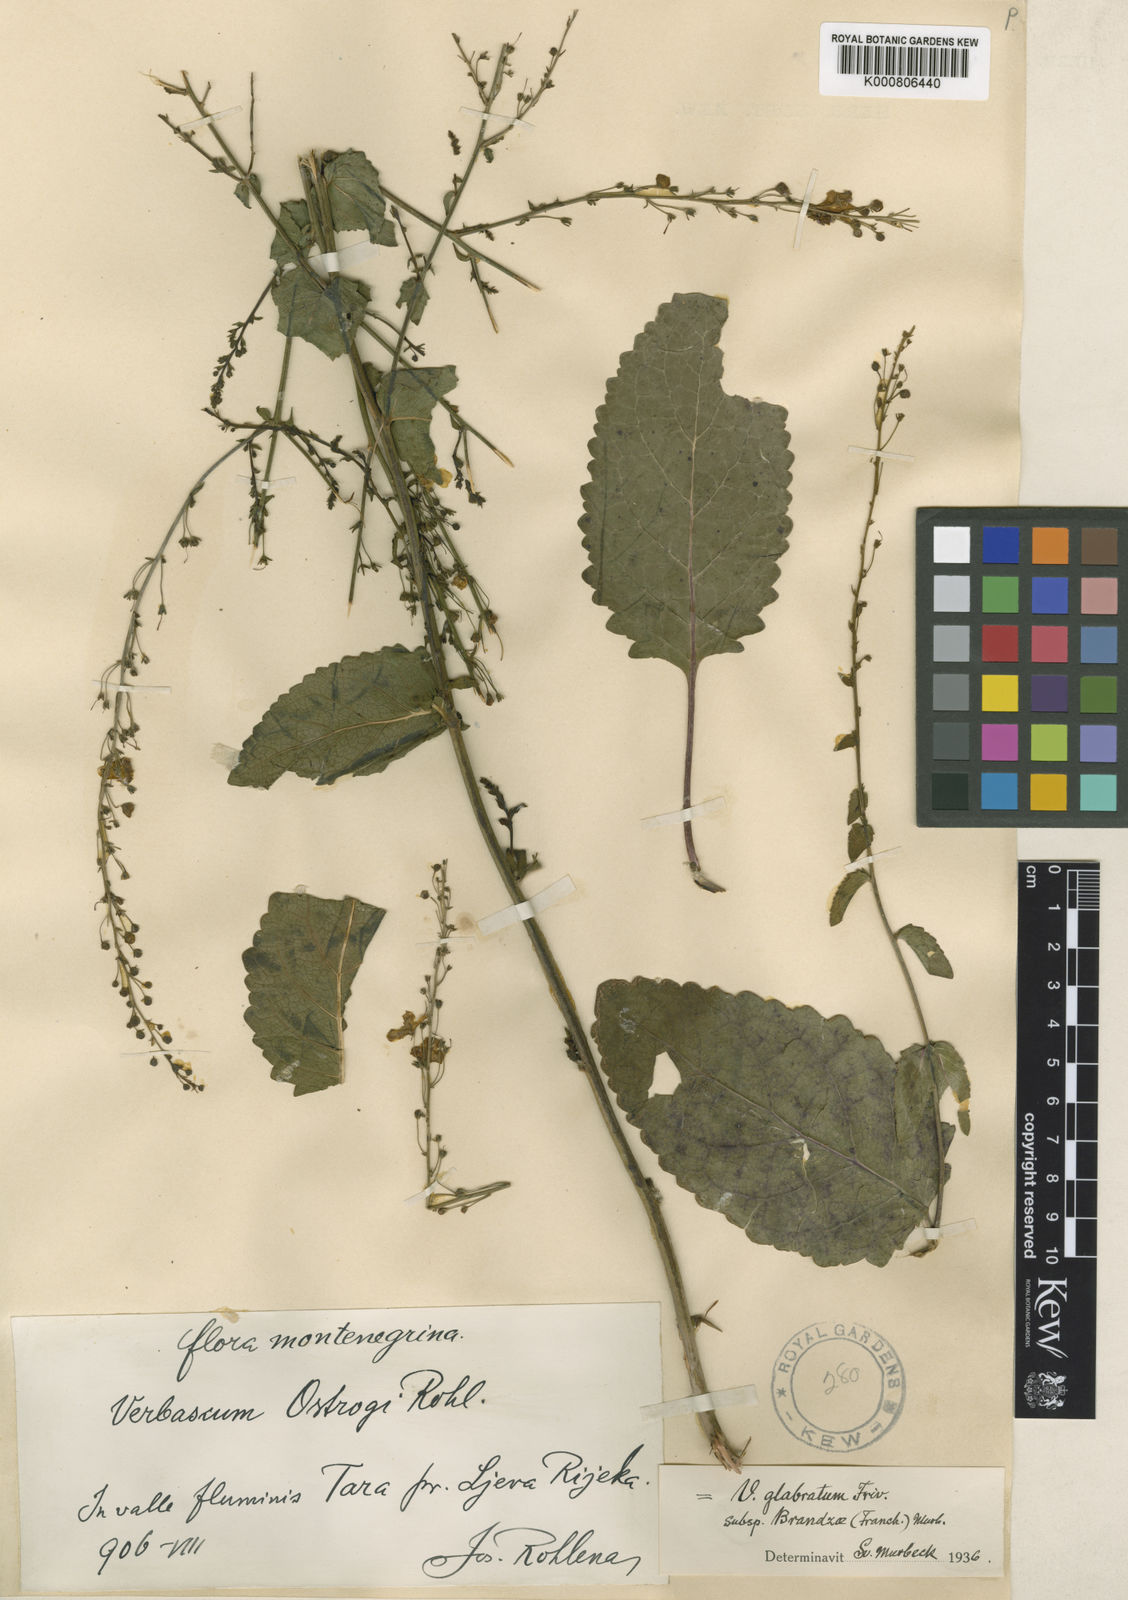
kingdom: Plantae
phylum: Tracheophyta
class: Magnoliopsida
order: Lamiales
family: Scrophulariaceae
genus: Verbascum
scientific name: Verbascum glabratum
